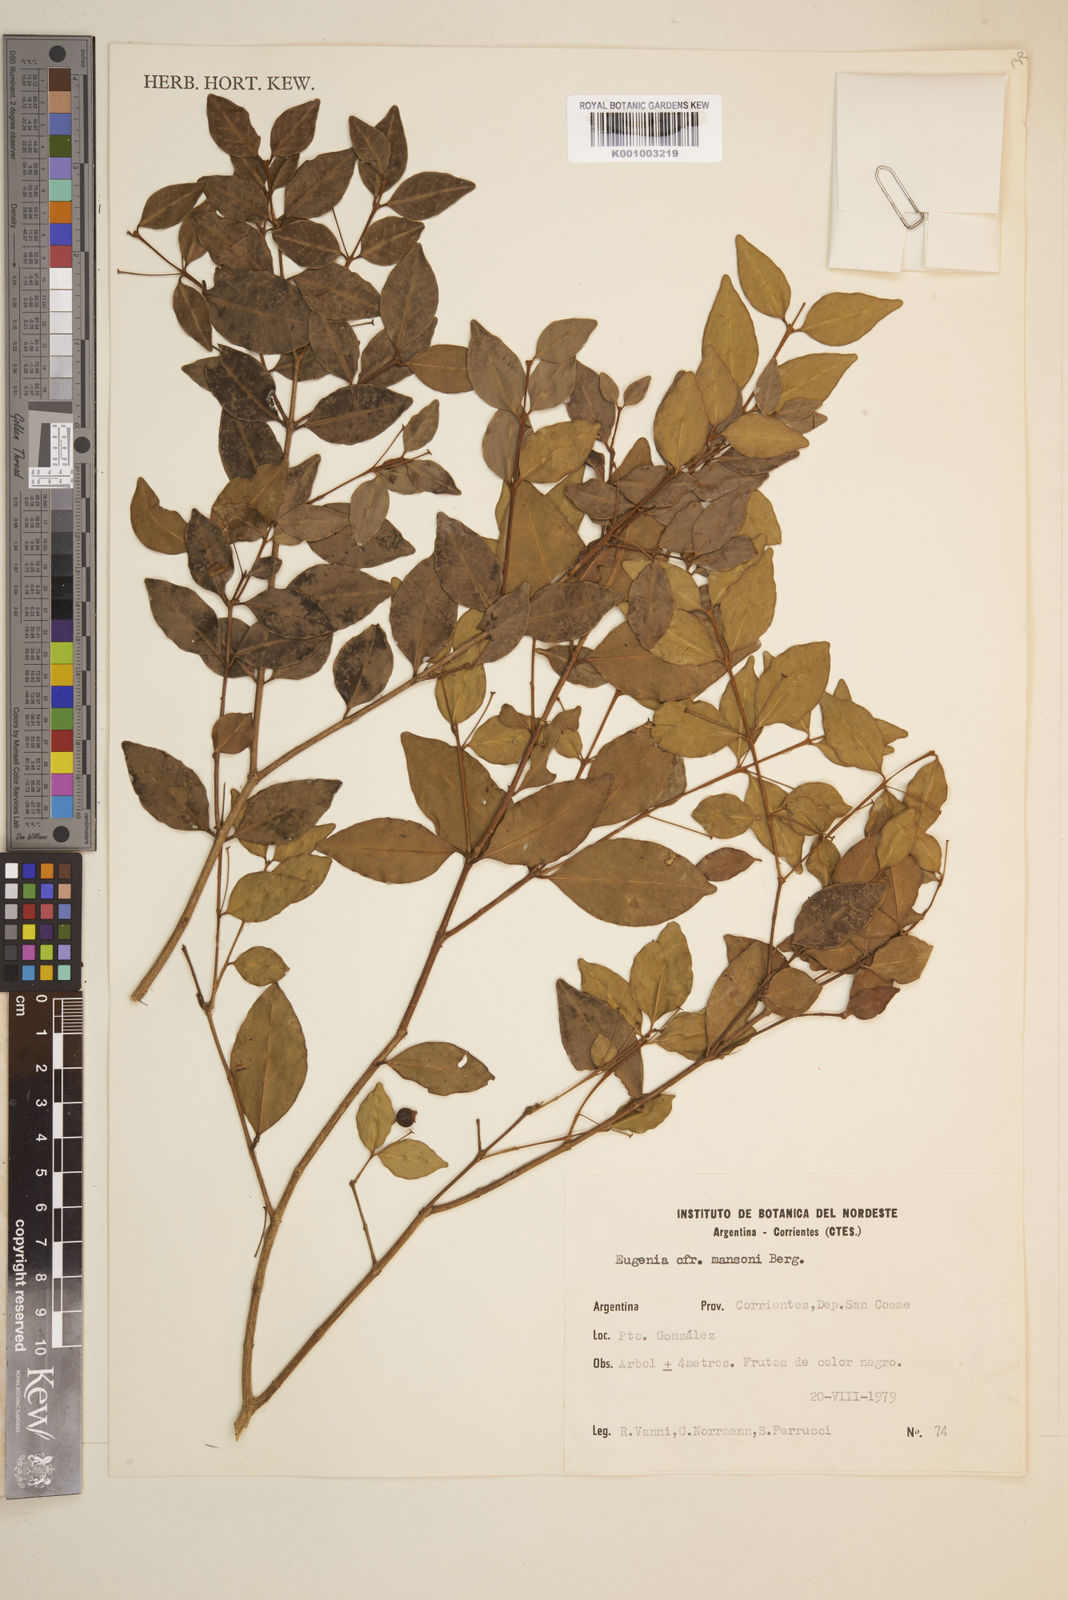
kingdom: Plantae
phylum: Tracheophyta
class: Magnoliopsida
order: Myrtales
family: Myrtaceae
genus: Eugenia
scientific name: Eugenia
